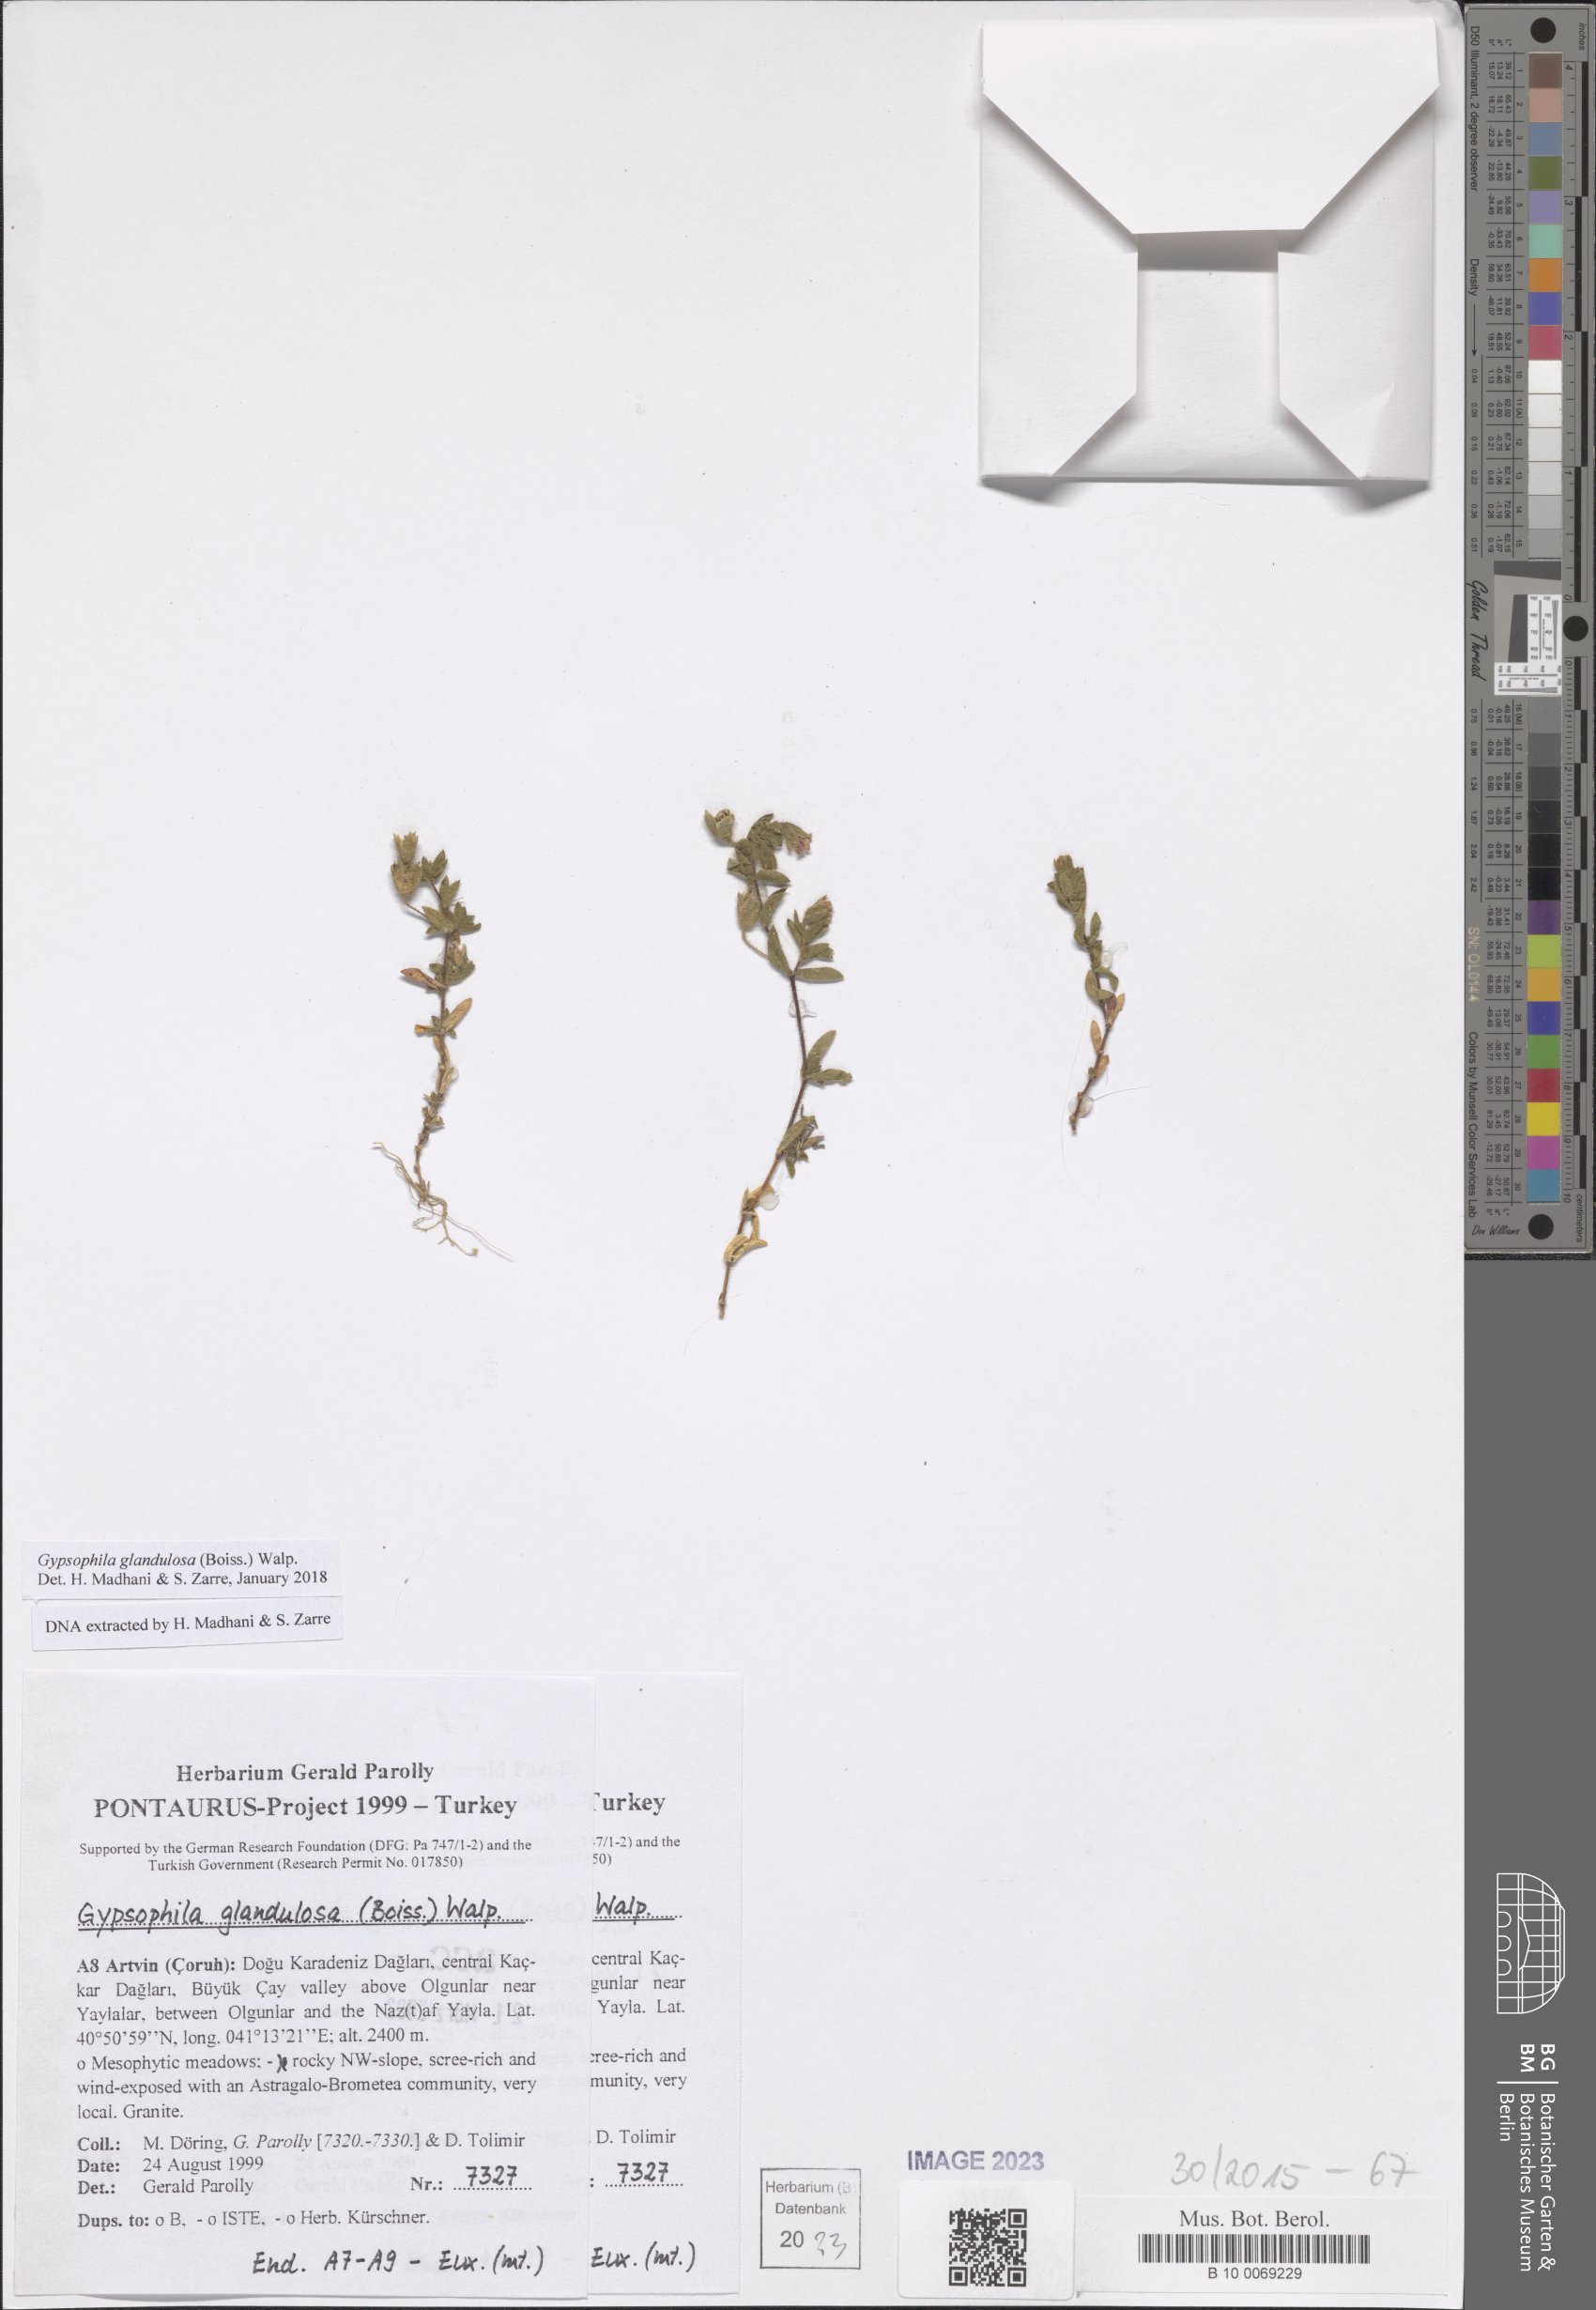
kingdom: Plantae
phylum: Tracheophyta
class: Magnoliopsida
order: Caryophyllales
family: Caryophyllaceae
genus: Heterochroa
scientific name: Heterochroa glandulosa
